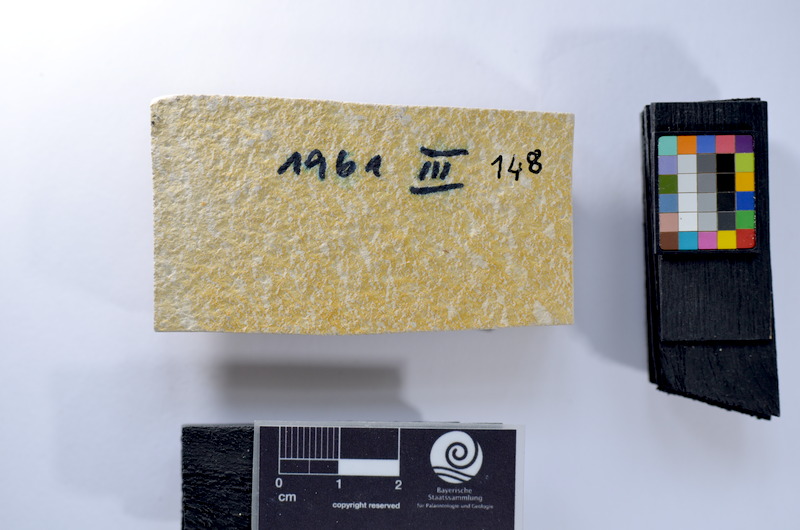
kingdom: Animalia
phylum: Chordata
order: Salmoniformes
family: Orthogonikleithridae
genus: Leptolepides
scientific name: Leptolepides
